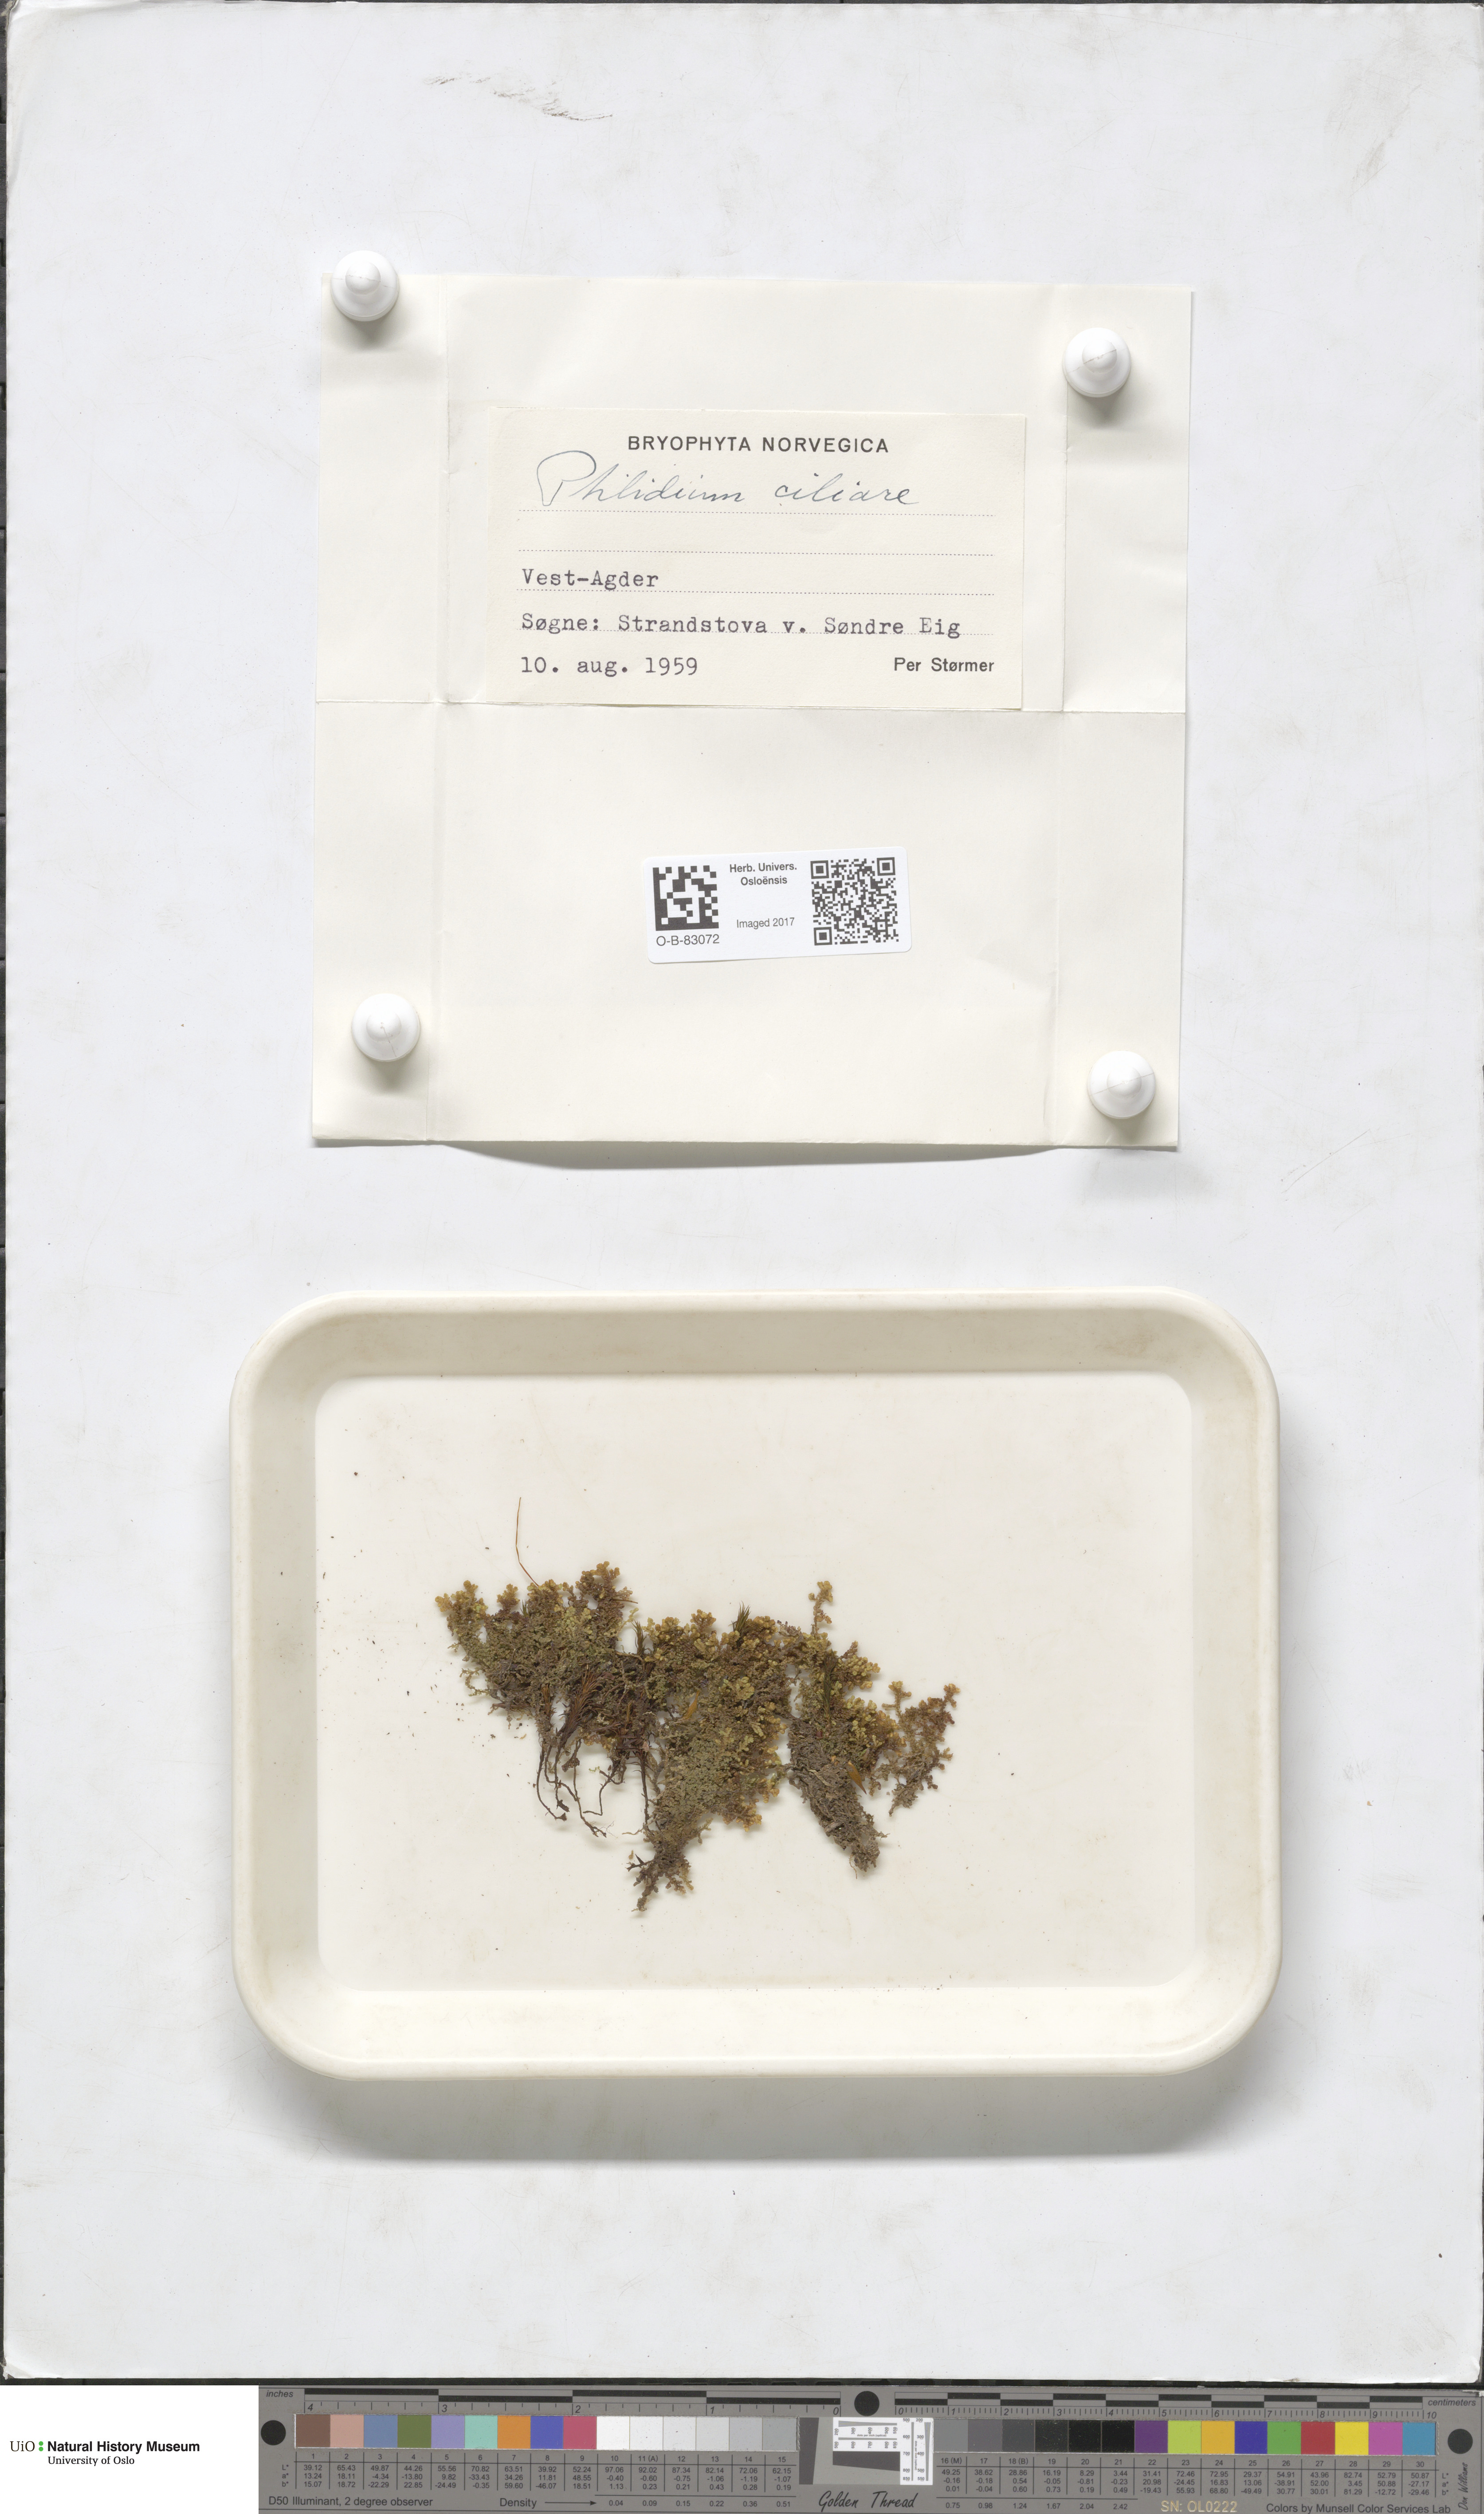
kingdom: Plantae
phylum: Marchantiophyta
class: Jungermanniopsida
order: Ptilidiales
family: Ptilidiaceae
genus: Ptilidium
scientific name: Ptilidium ciliare
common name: Ciliate fringewort
